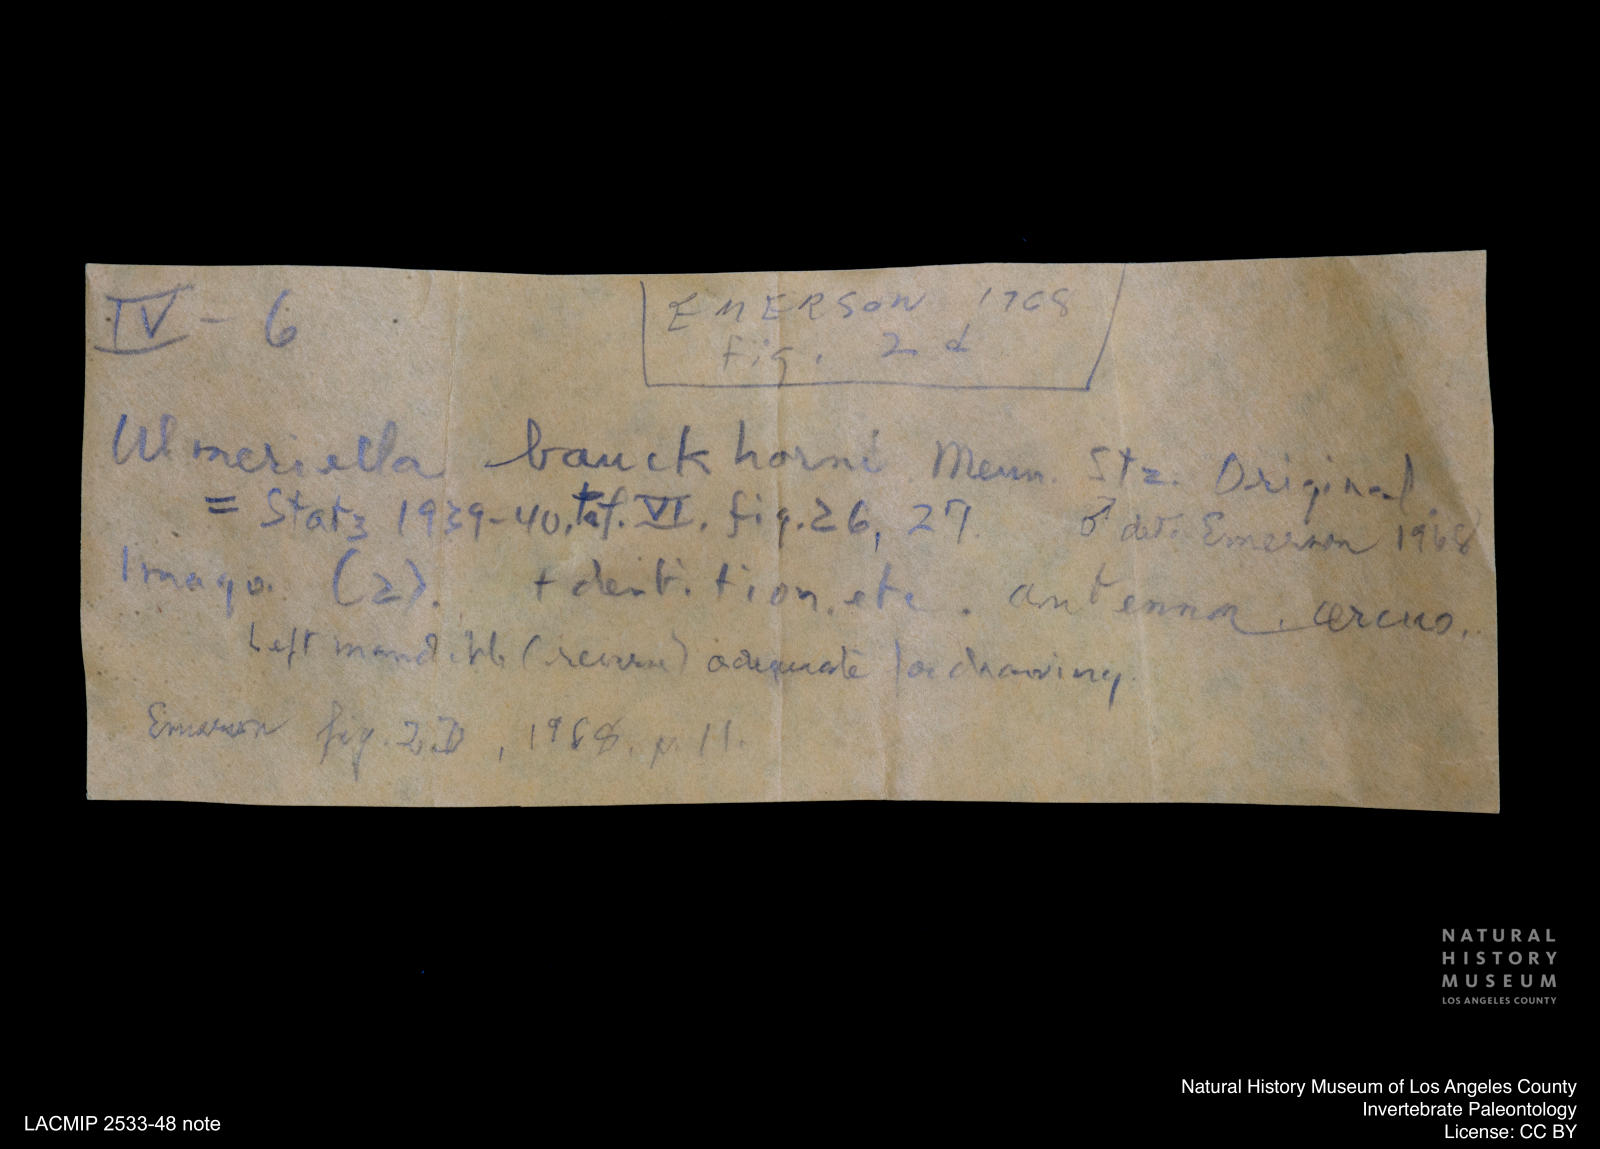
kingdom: Animalia
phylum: Arthropoda
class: Insecta
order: Blattodea
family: Hodotermitidae
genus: Ulmeriella
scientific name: Ulmeriella bauckhorni
